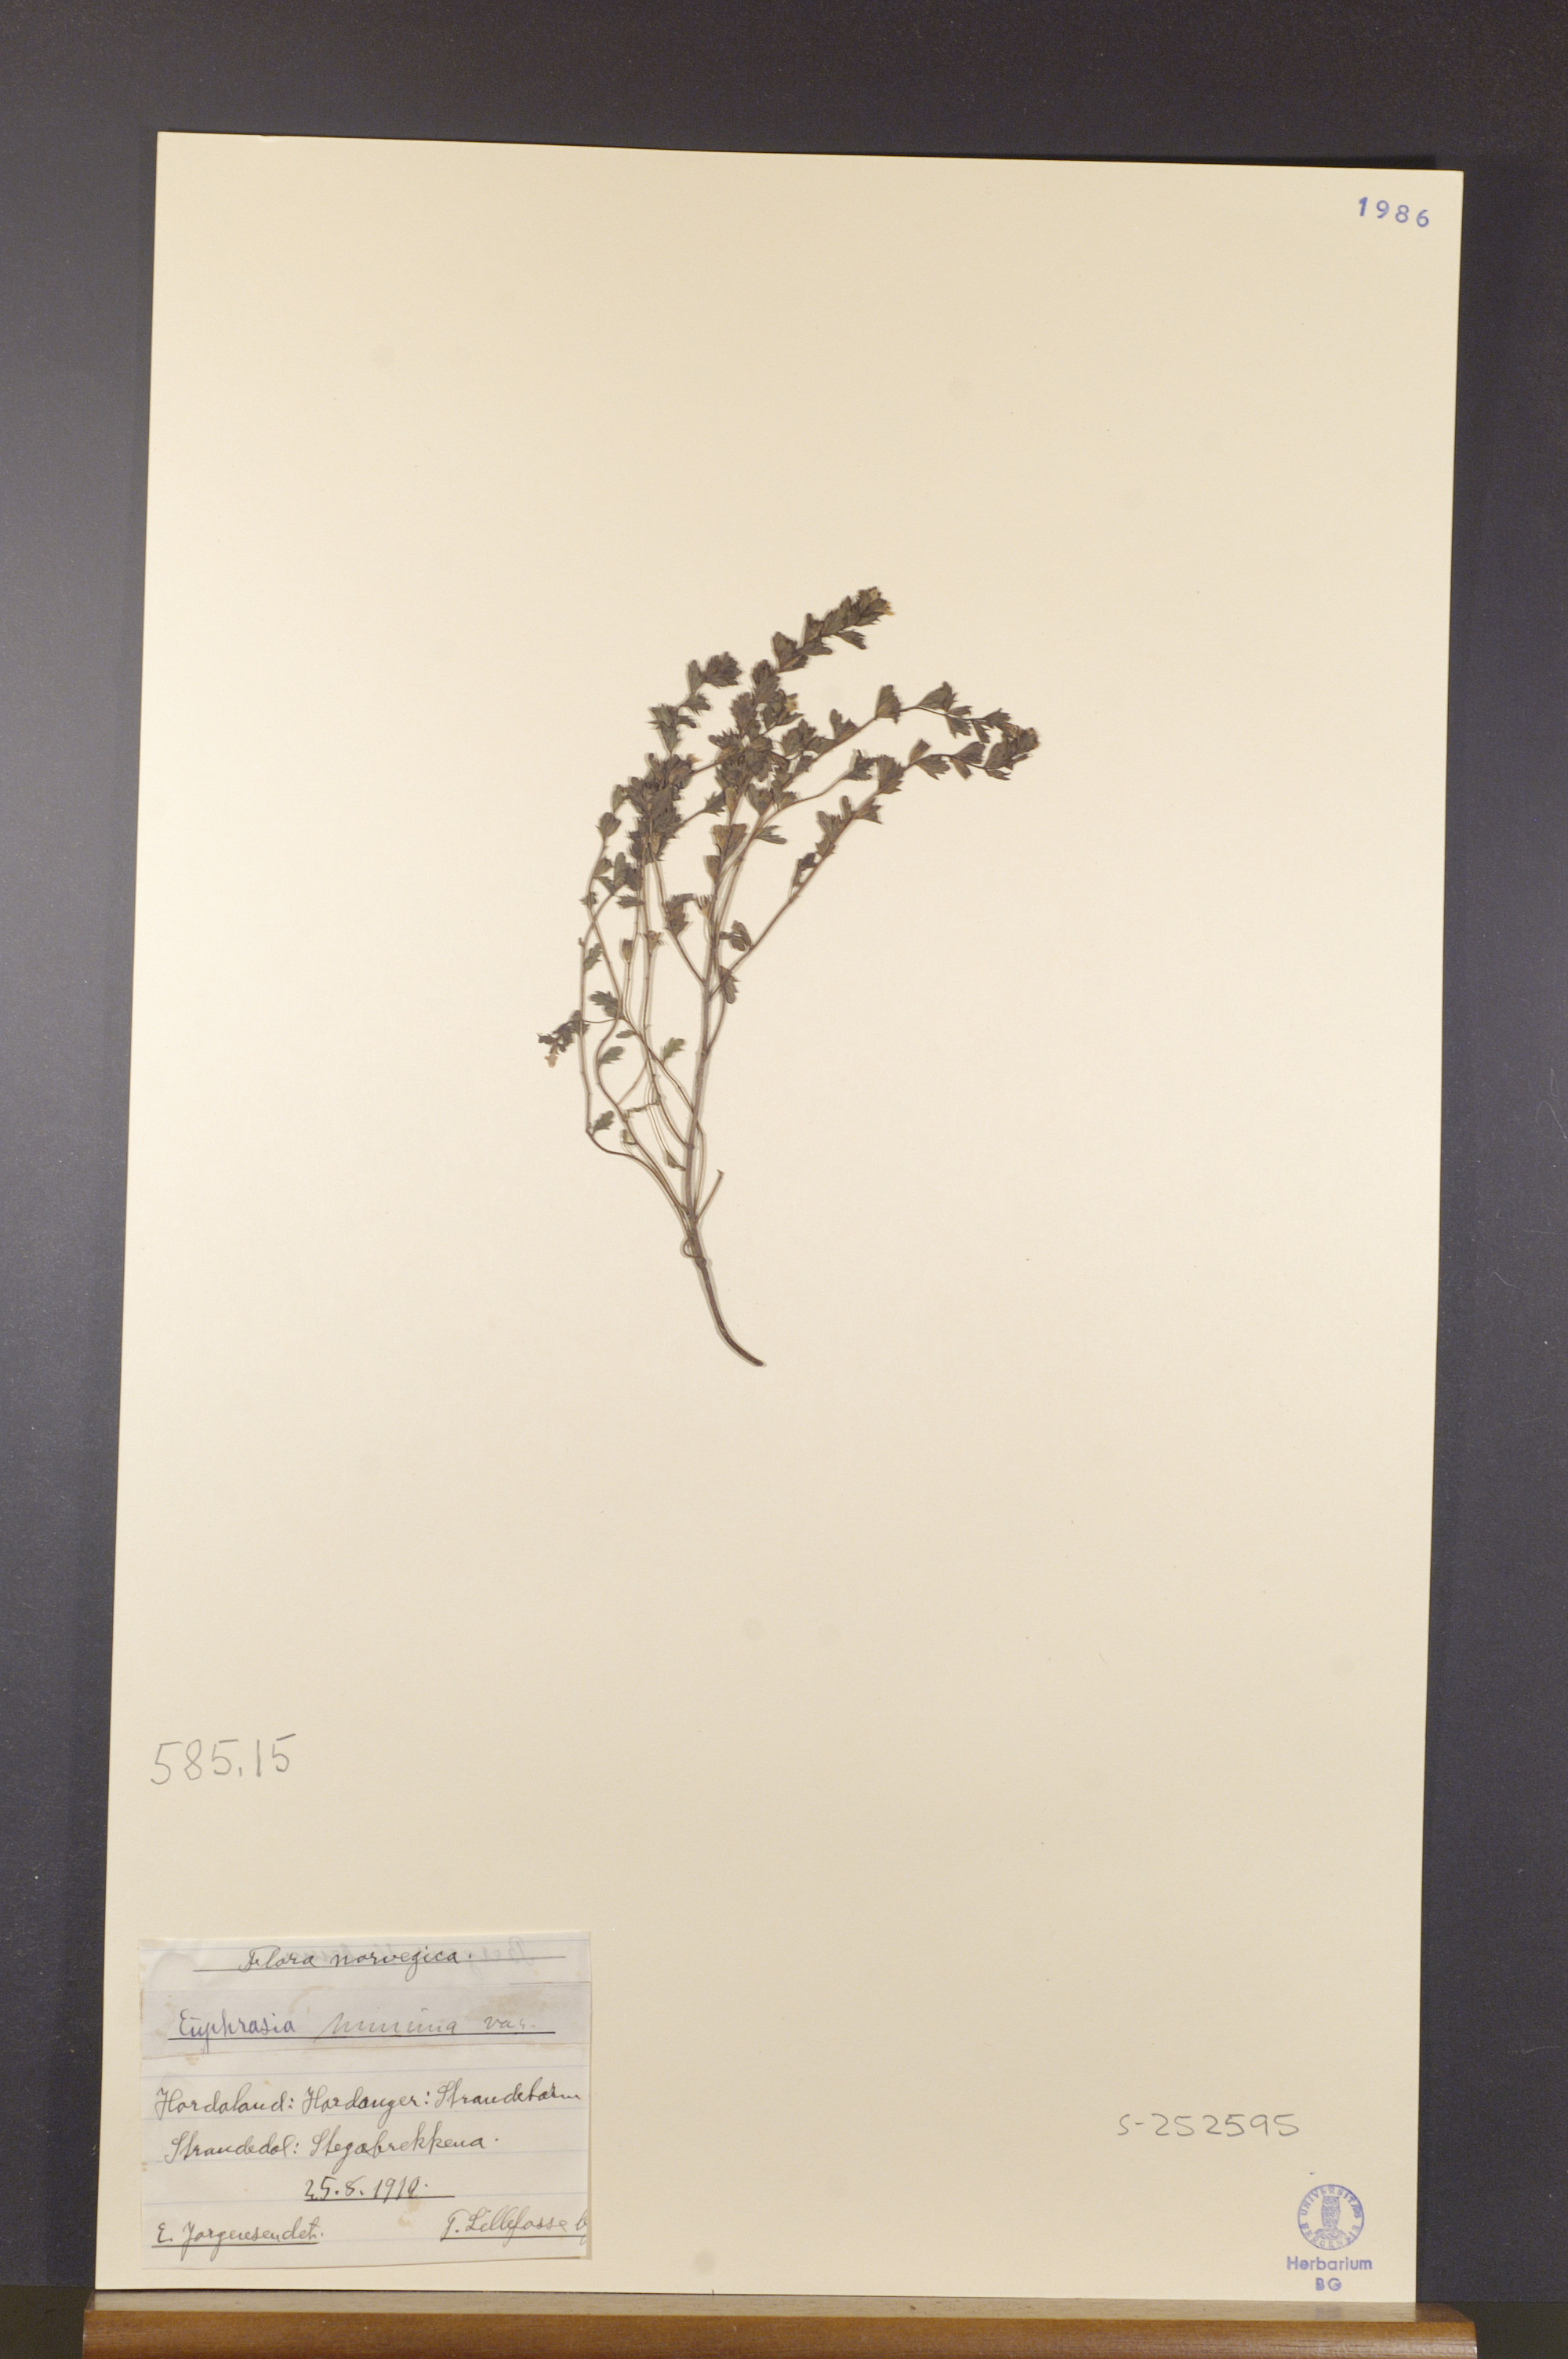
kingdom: Plantae
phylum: Tracheophyta
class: Magnoliopsida
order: Lamiales
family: Orobanchaceae
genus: Euphrasia
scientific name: Euphrasia minima
